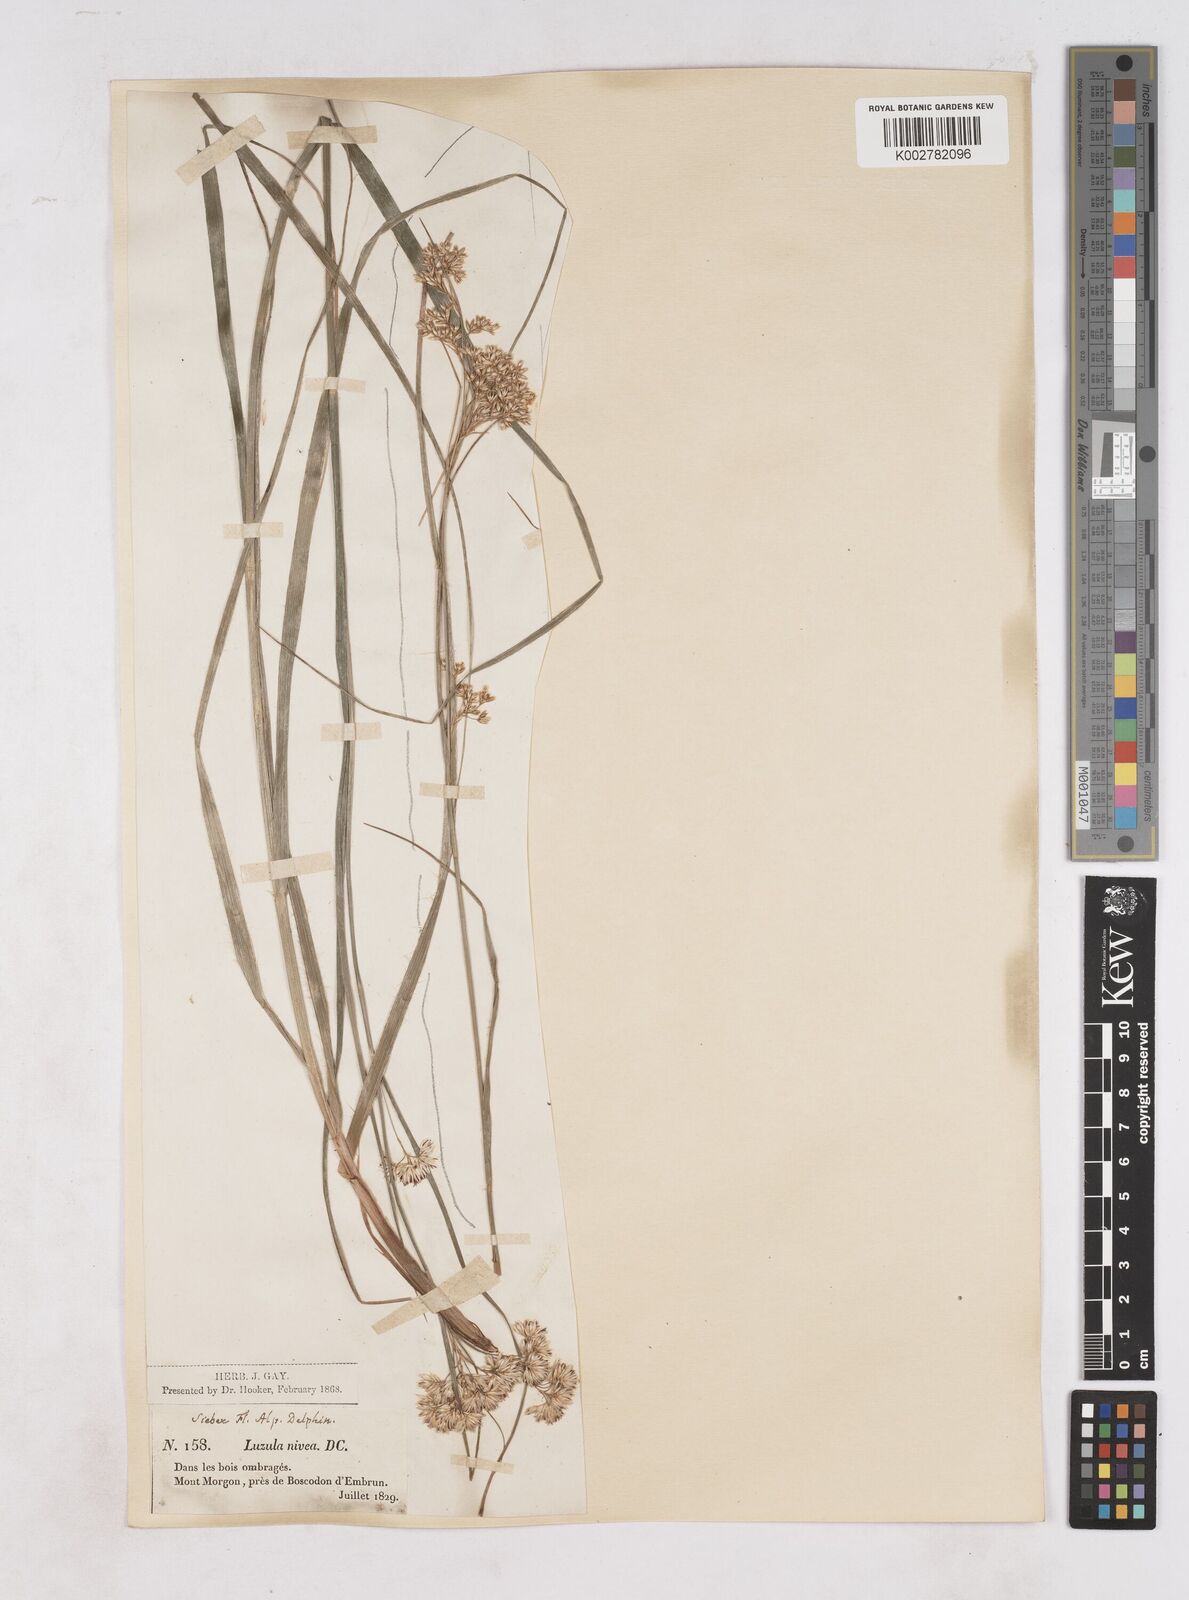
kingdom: Plantae
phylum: Tracheophyta
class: Liliopsida
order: Poales
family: Juncaceae
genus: Luzula
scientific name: Luzula nivea
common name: Snow-white wood-rush
